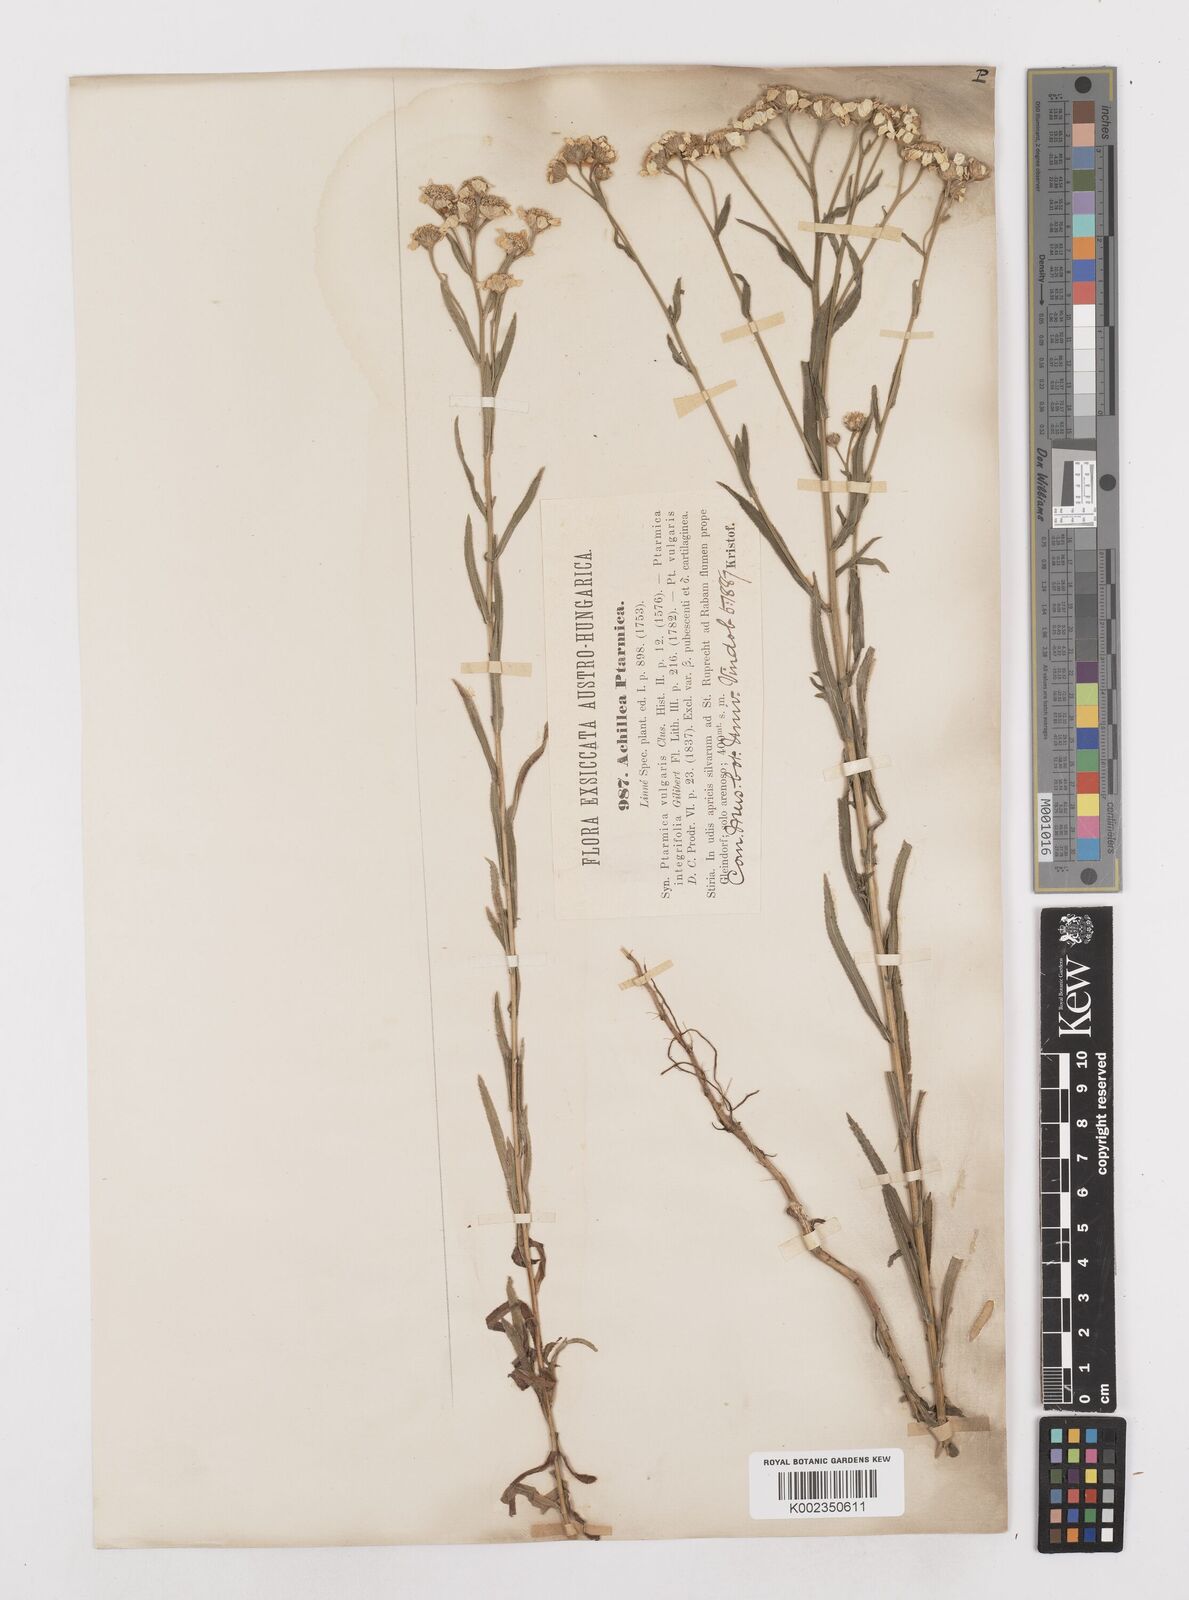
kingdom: Plantae
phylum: Tracheophyta
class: Magnoliopsida
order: Asterales
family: Asteraceae
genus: Achillea
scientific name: Achillea ptarmica
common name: Sneezeweed
